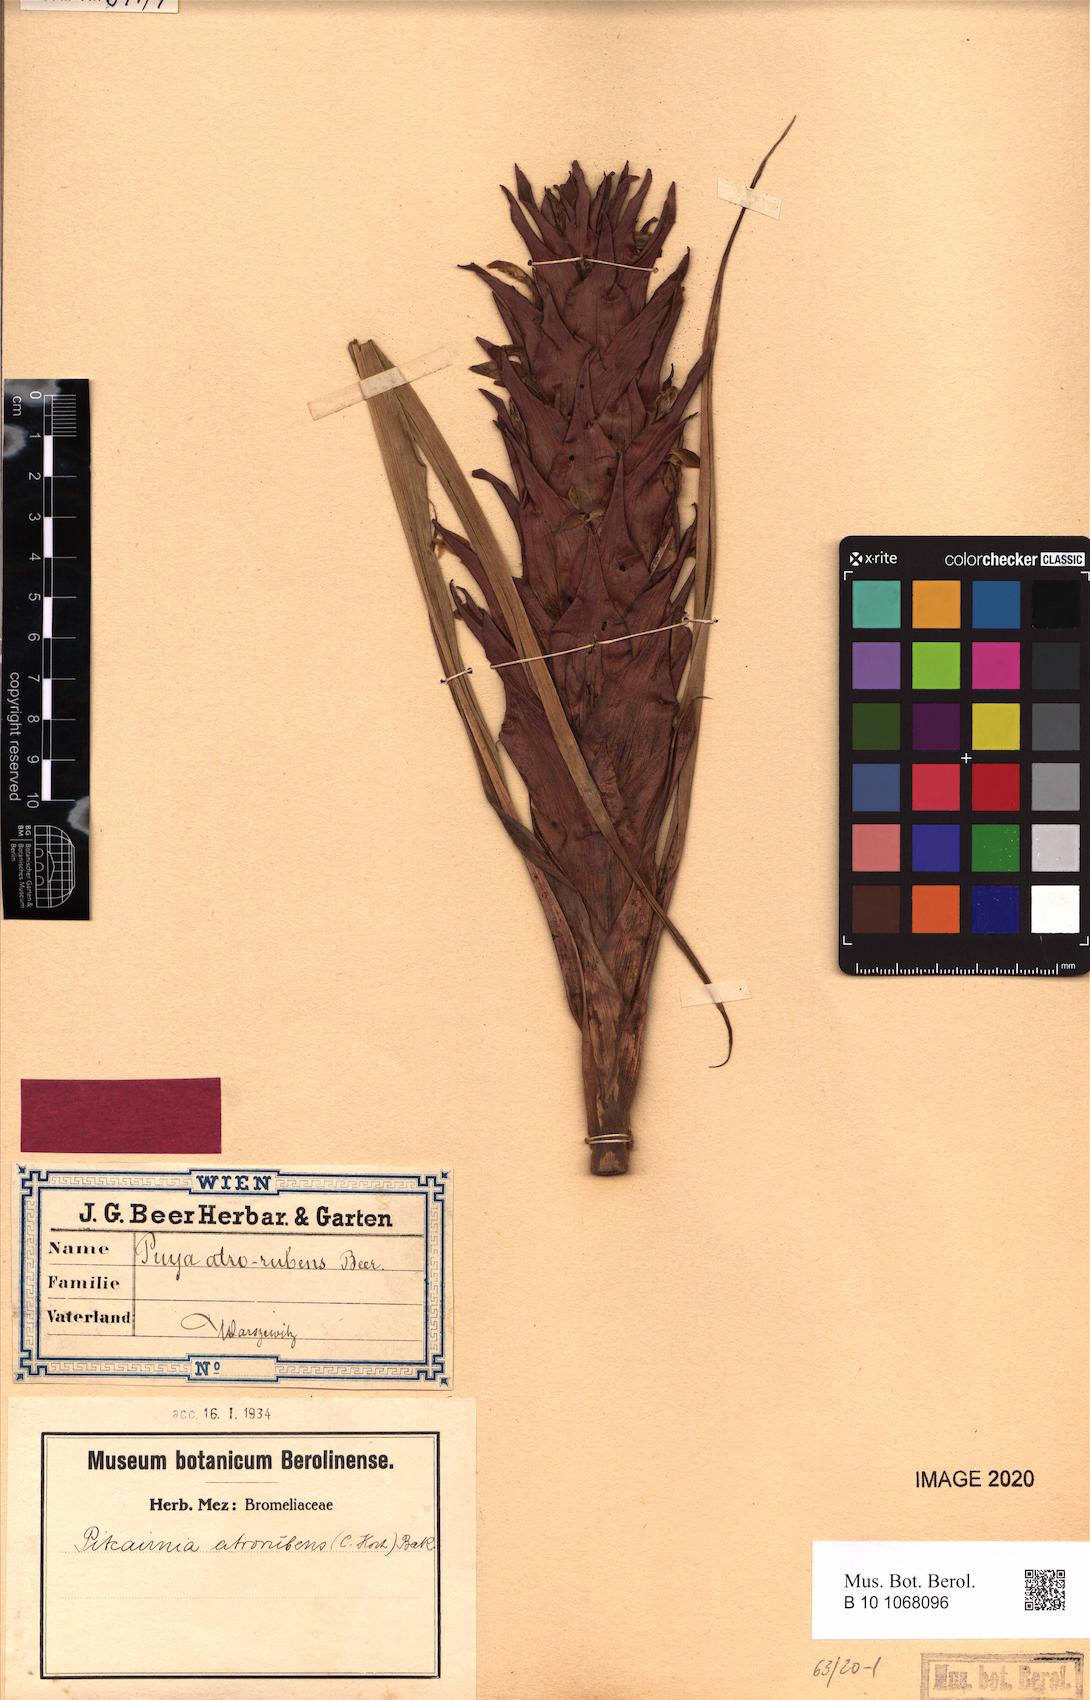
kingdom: Plantae
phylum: Tracheophyta
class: Liliopsida
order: Poales
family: Bromeliaceae
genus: Pitcairnia
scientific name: Pitcairnia atrorubens
